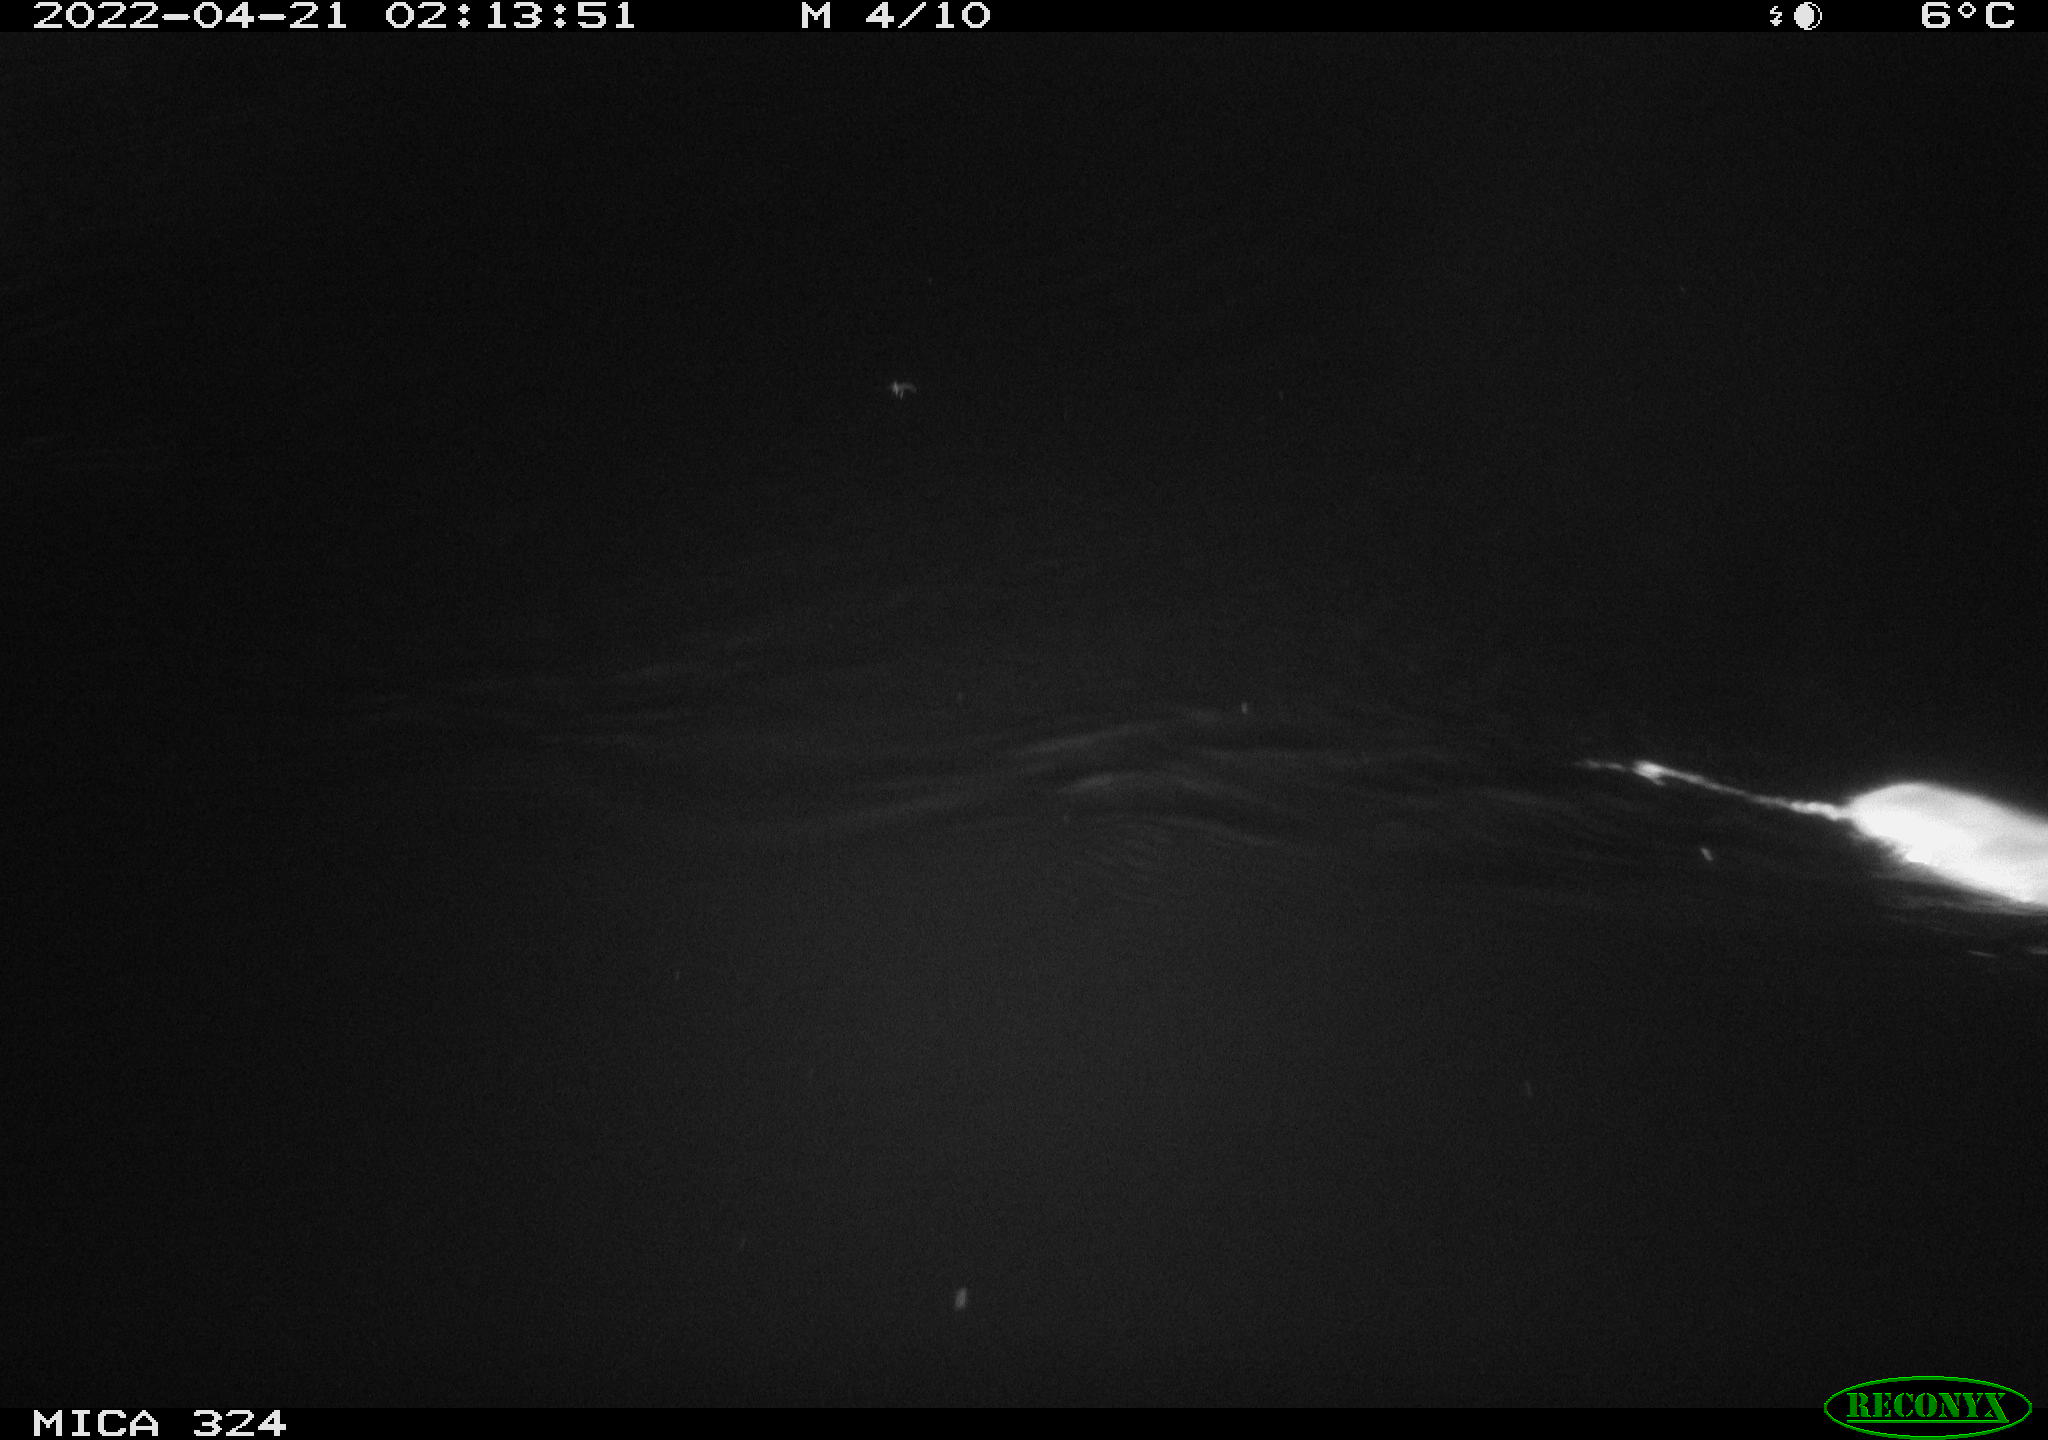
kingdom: Animalia
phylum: Chordata
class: Mammalia
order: Rodentia
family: Muridae
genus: Rattus
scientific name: Rattus norvegicus
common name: Brown rat
